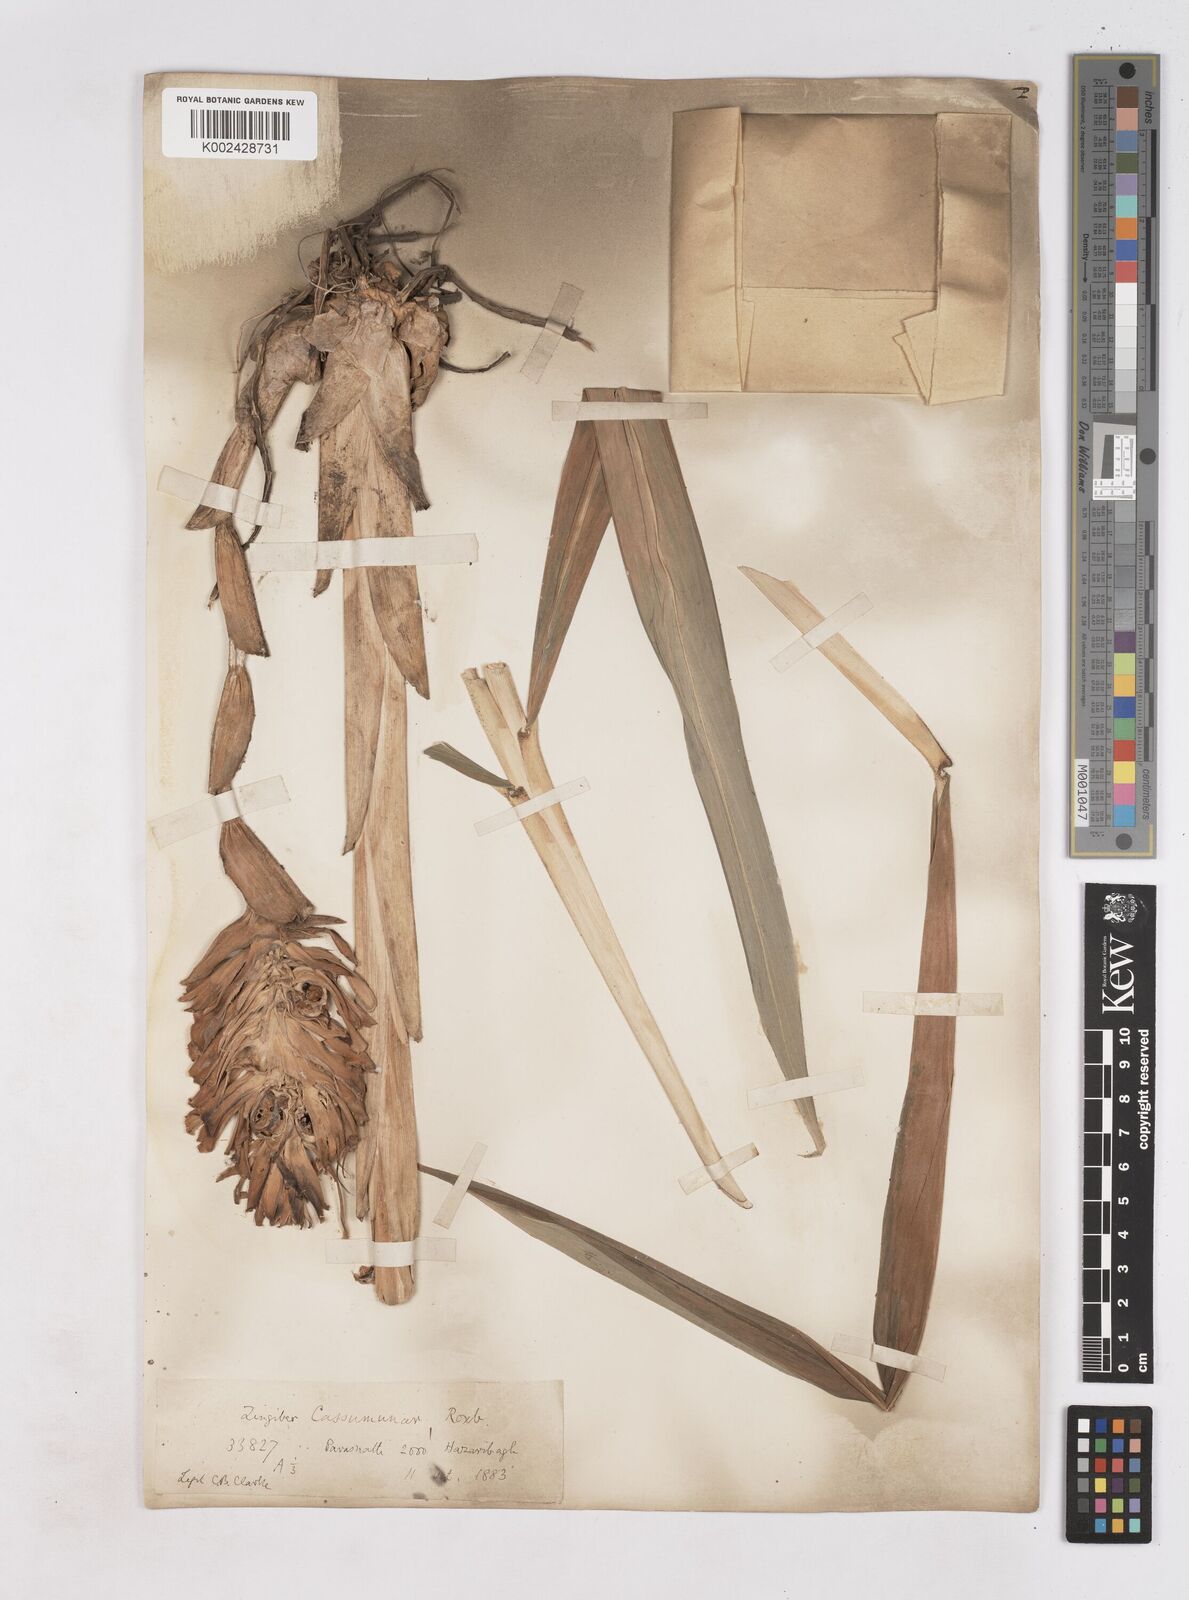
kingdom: Plantae
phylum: Tracheophyta
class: Liliopsida
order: Zingiberales
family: Zingiberaceae
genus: Zingiber
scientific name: Zingiber montanum
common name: Bengal ginger
